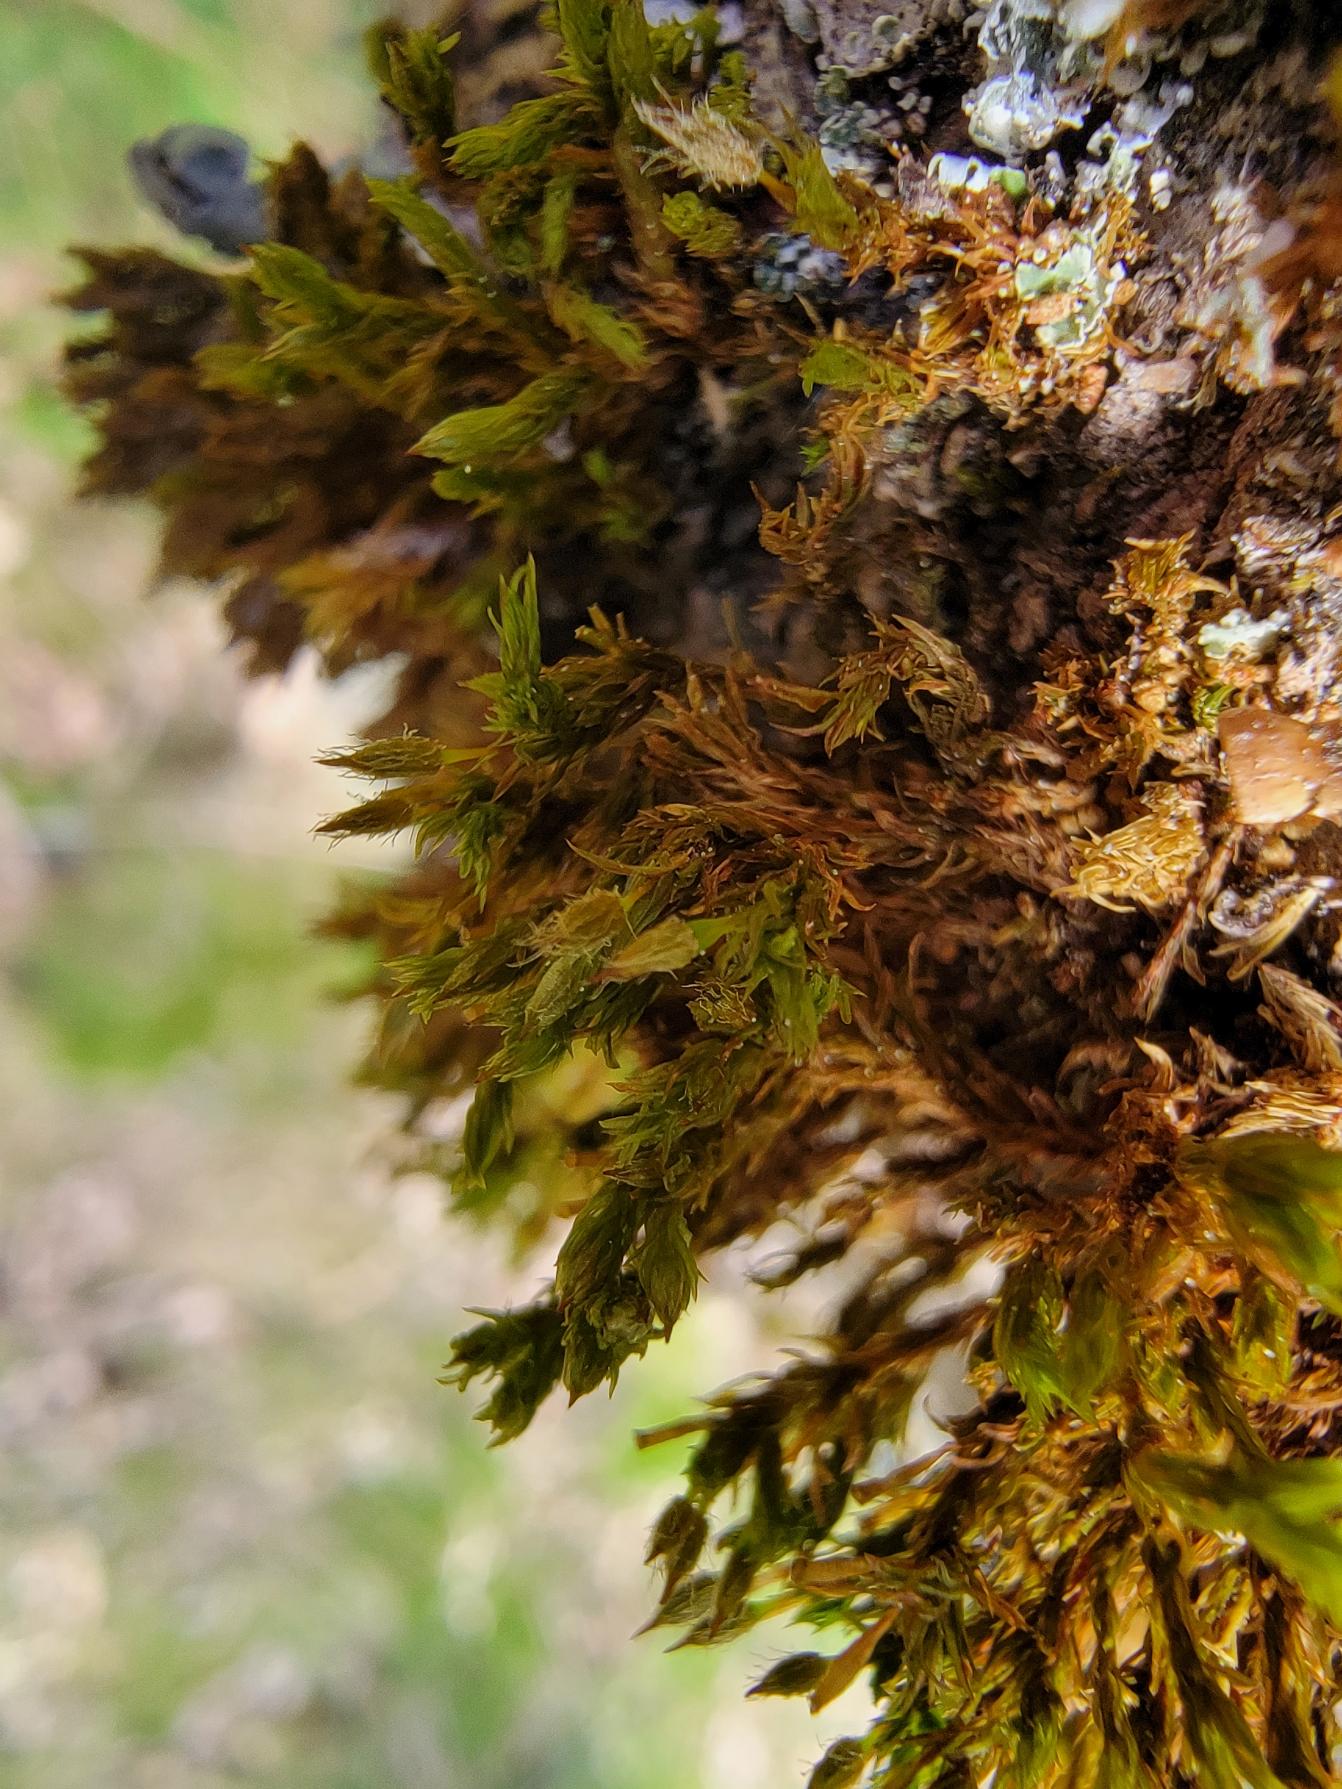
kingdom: Plantae
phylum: Bryophyta
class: Bryopsida
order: Orthotrichales
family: Orthotrichaceae
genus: Lewinskya
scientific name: Lewinskya speciosa
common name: Kortstribet furehætte
